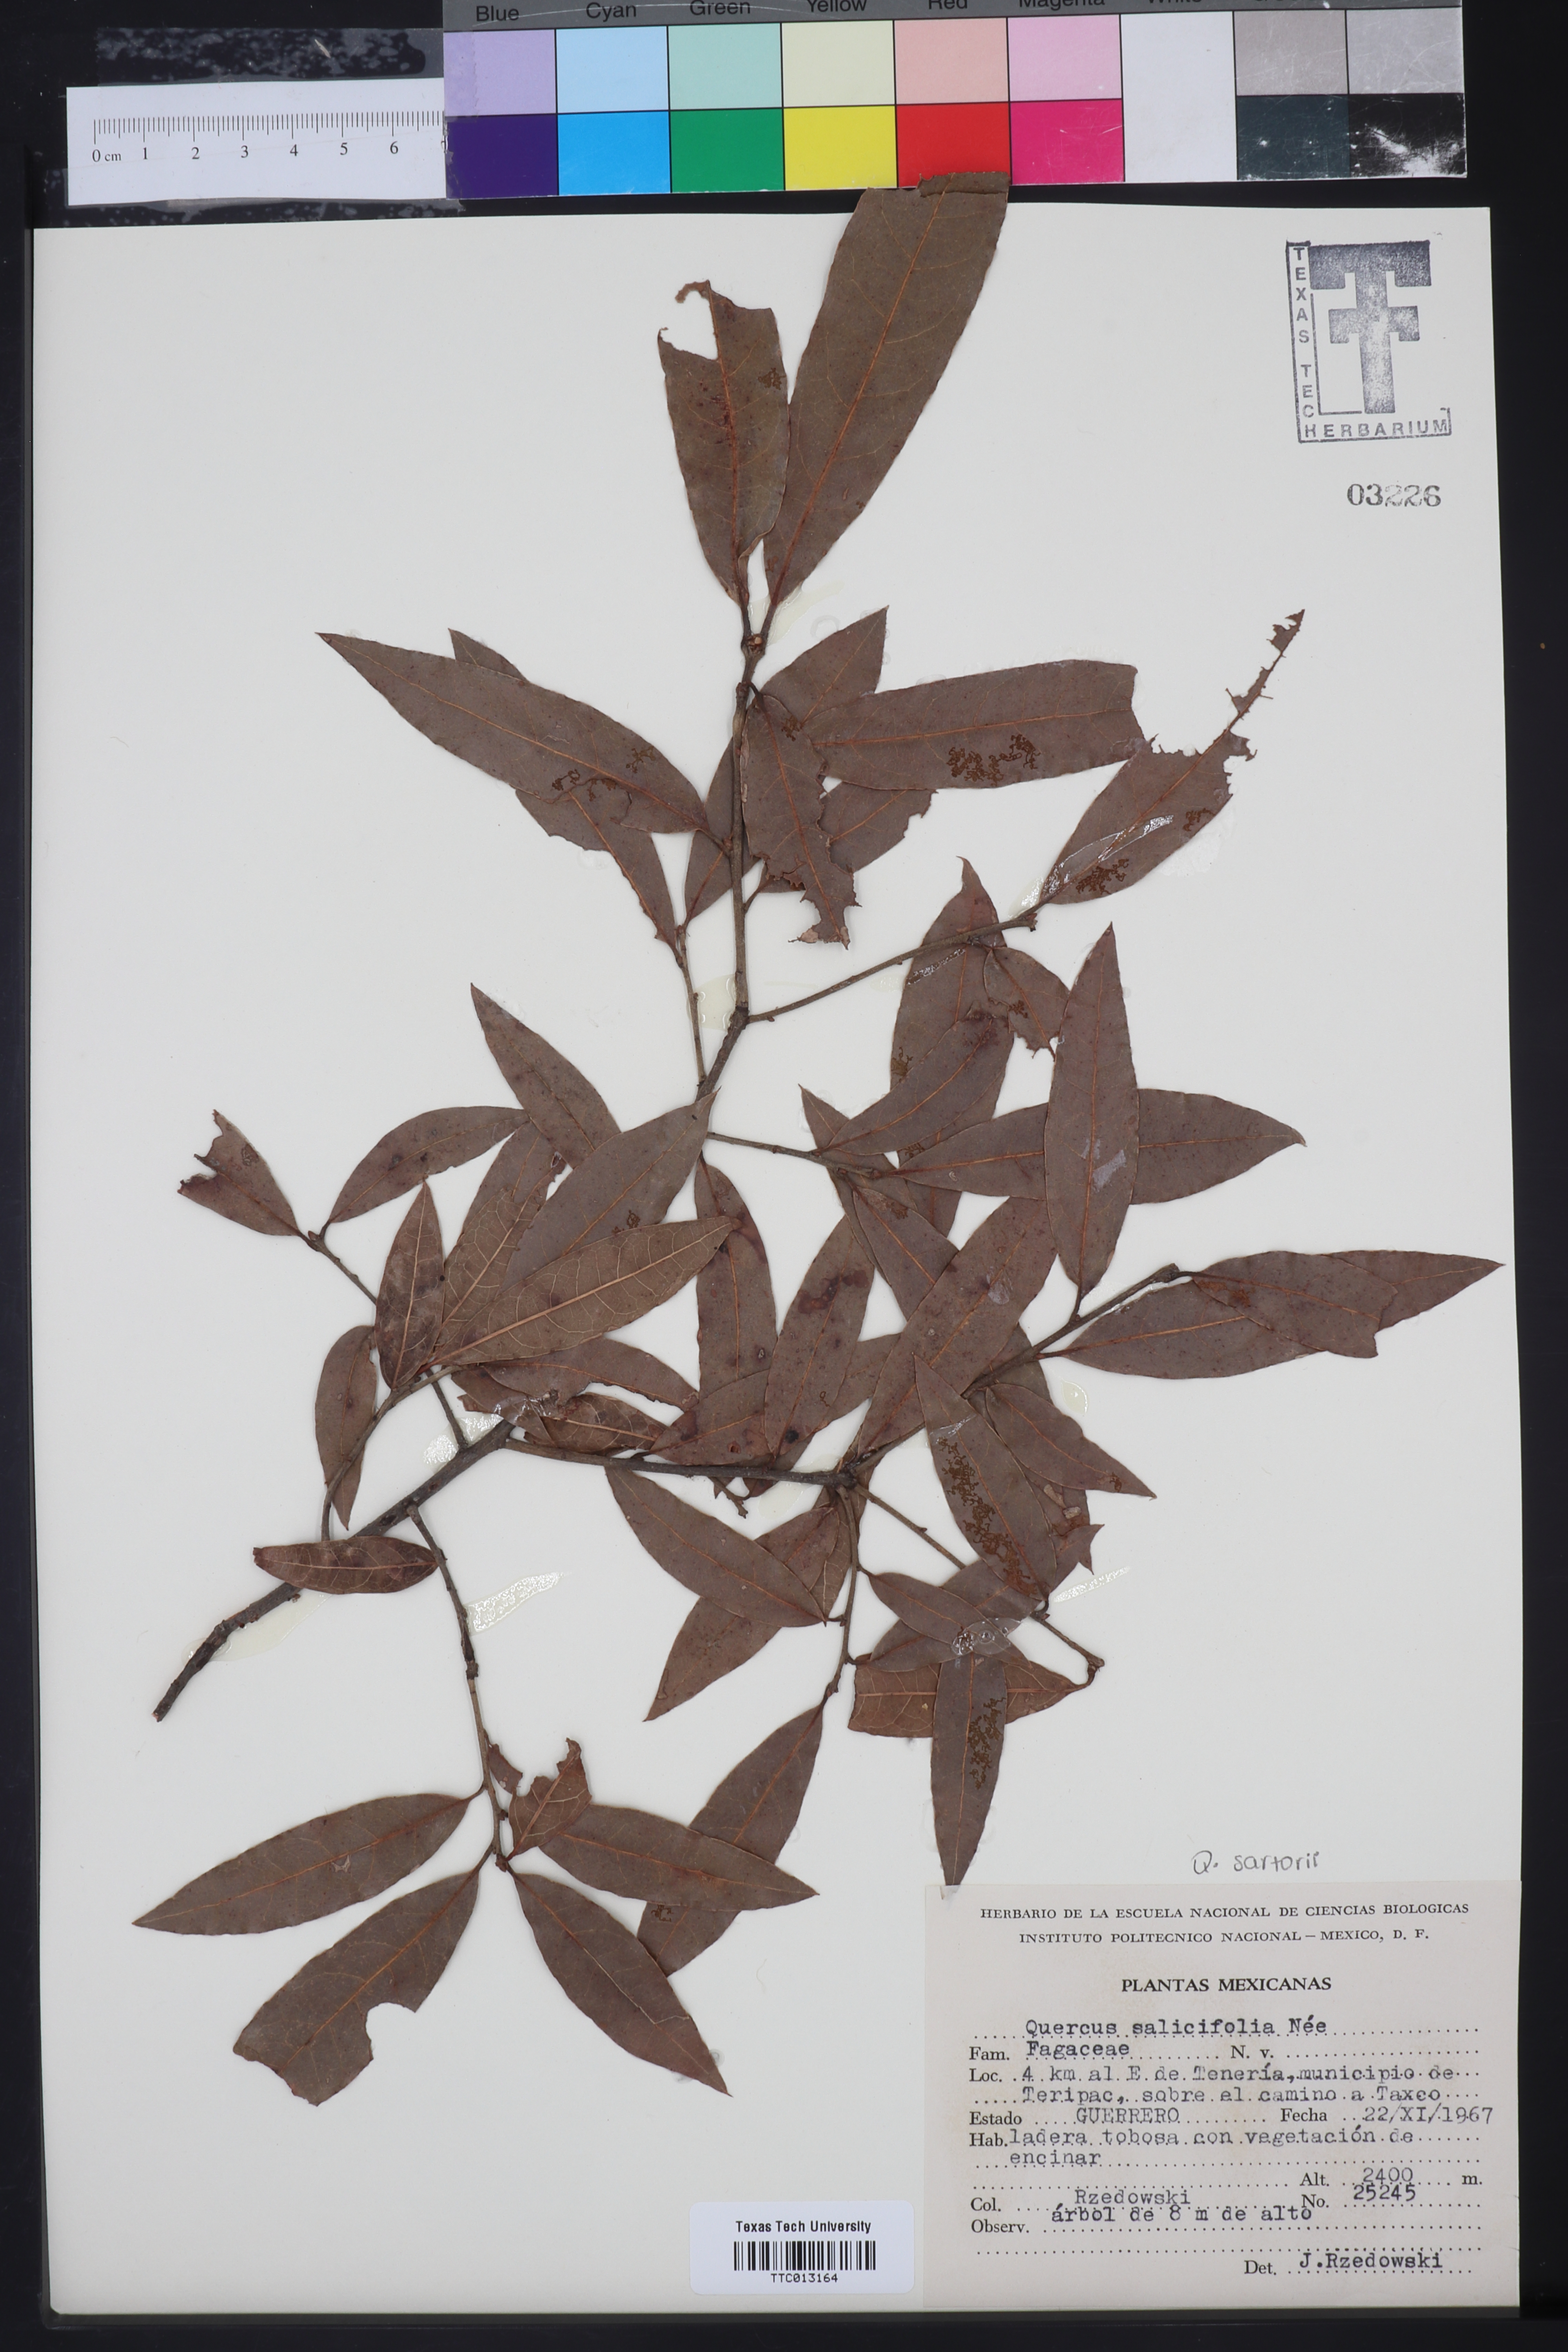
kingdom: Plantae
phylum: Tracheophyta
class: Magnoliopsida
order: Fagales
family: Fagaceae
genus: Quercus
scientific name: Quercus salicifolia
